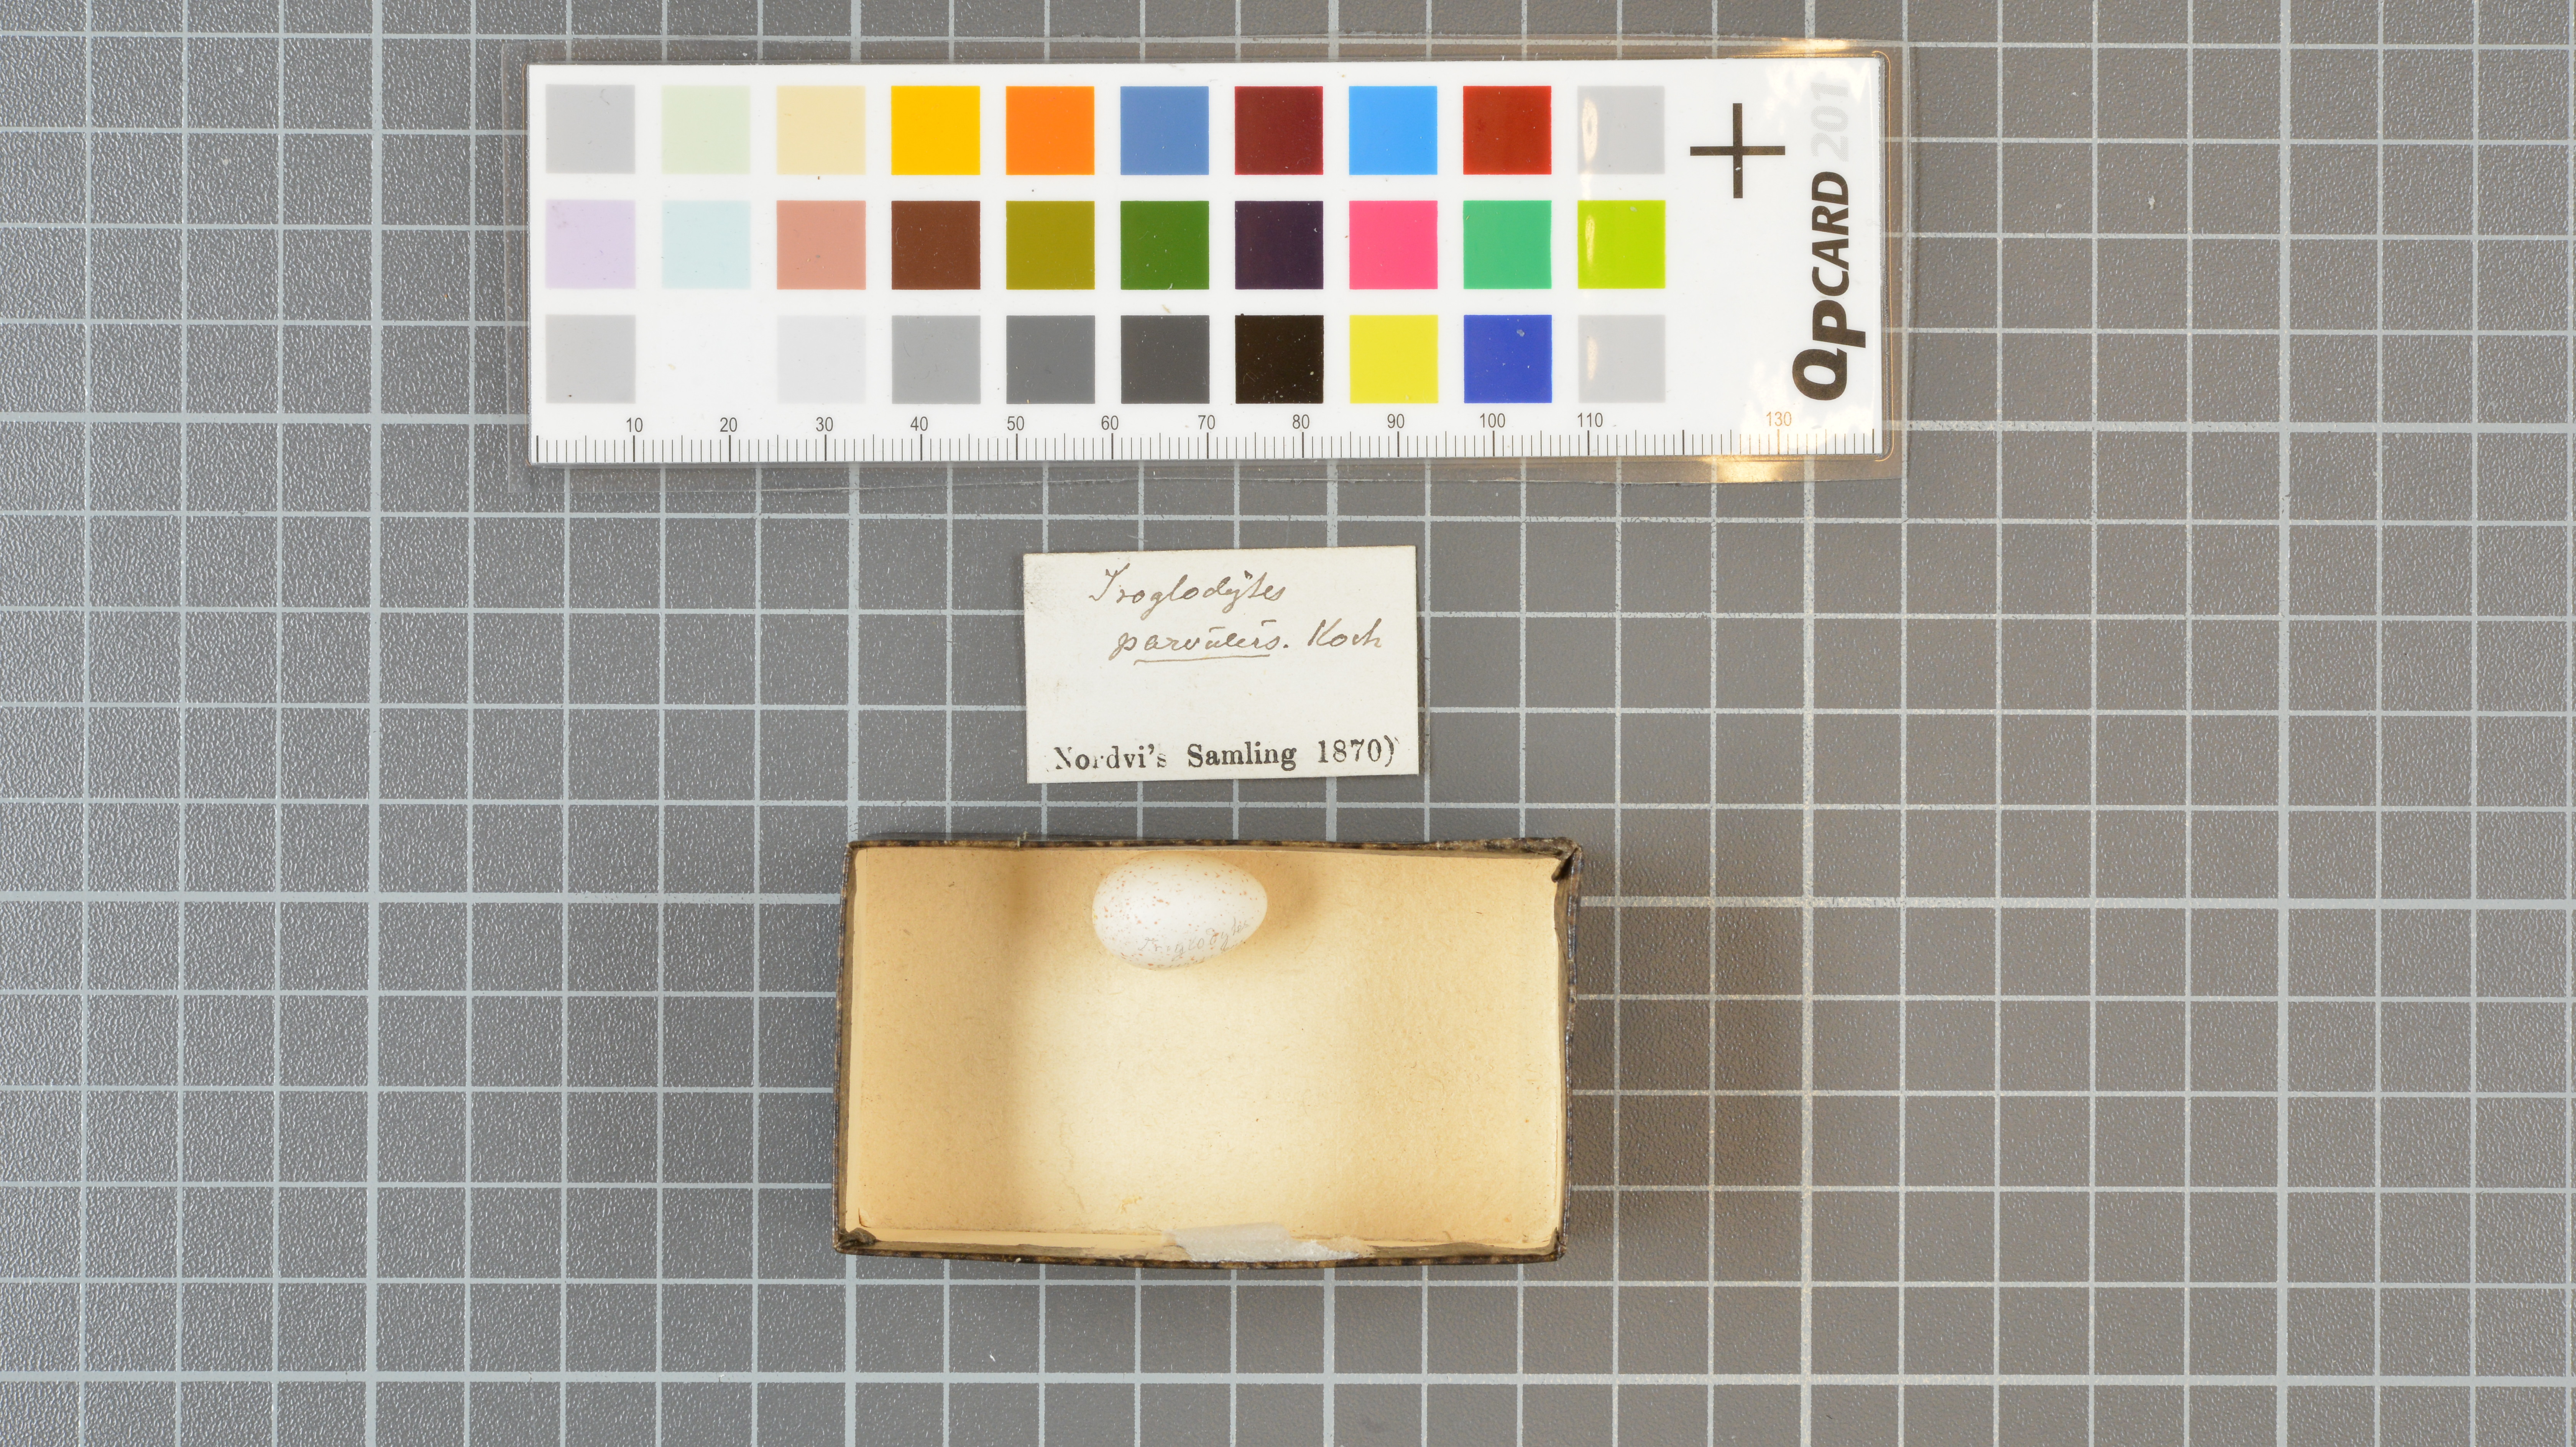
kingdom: Animalia
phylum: Chordata
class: Aves
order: Passeriformes
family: Troglodytidae
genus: Troglodytes
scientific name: Troglodytes troglodytes
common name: Eurasian wren
